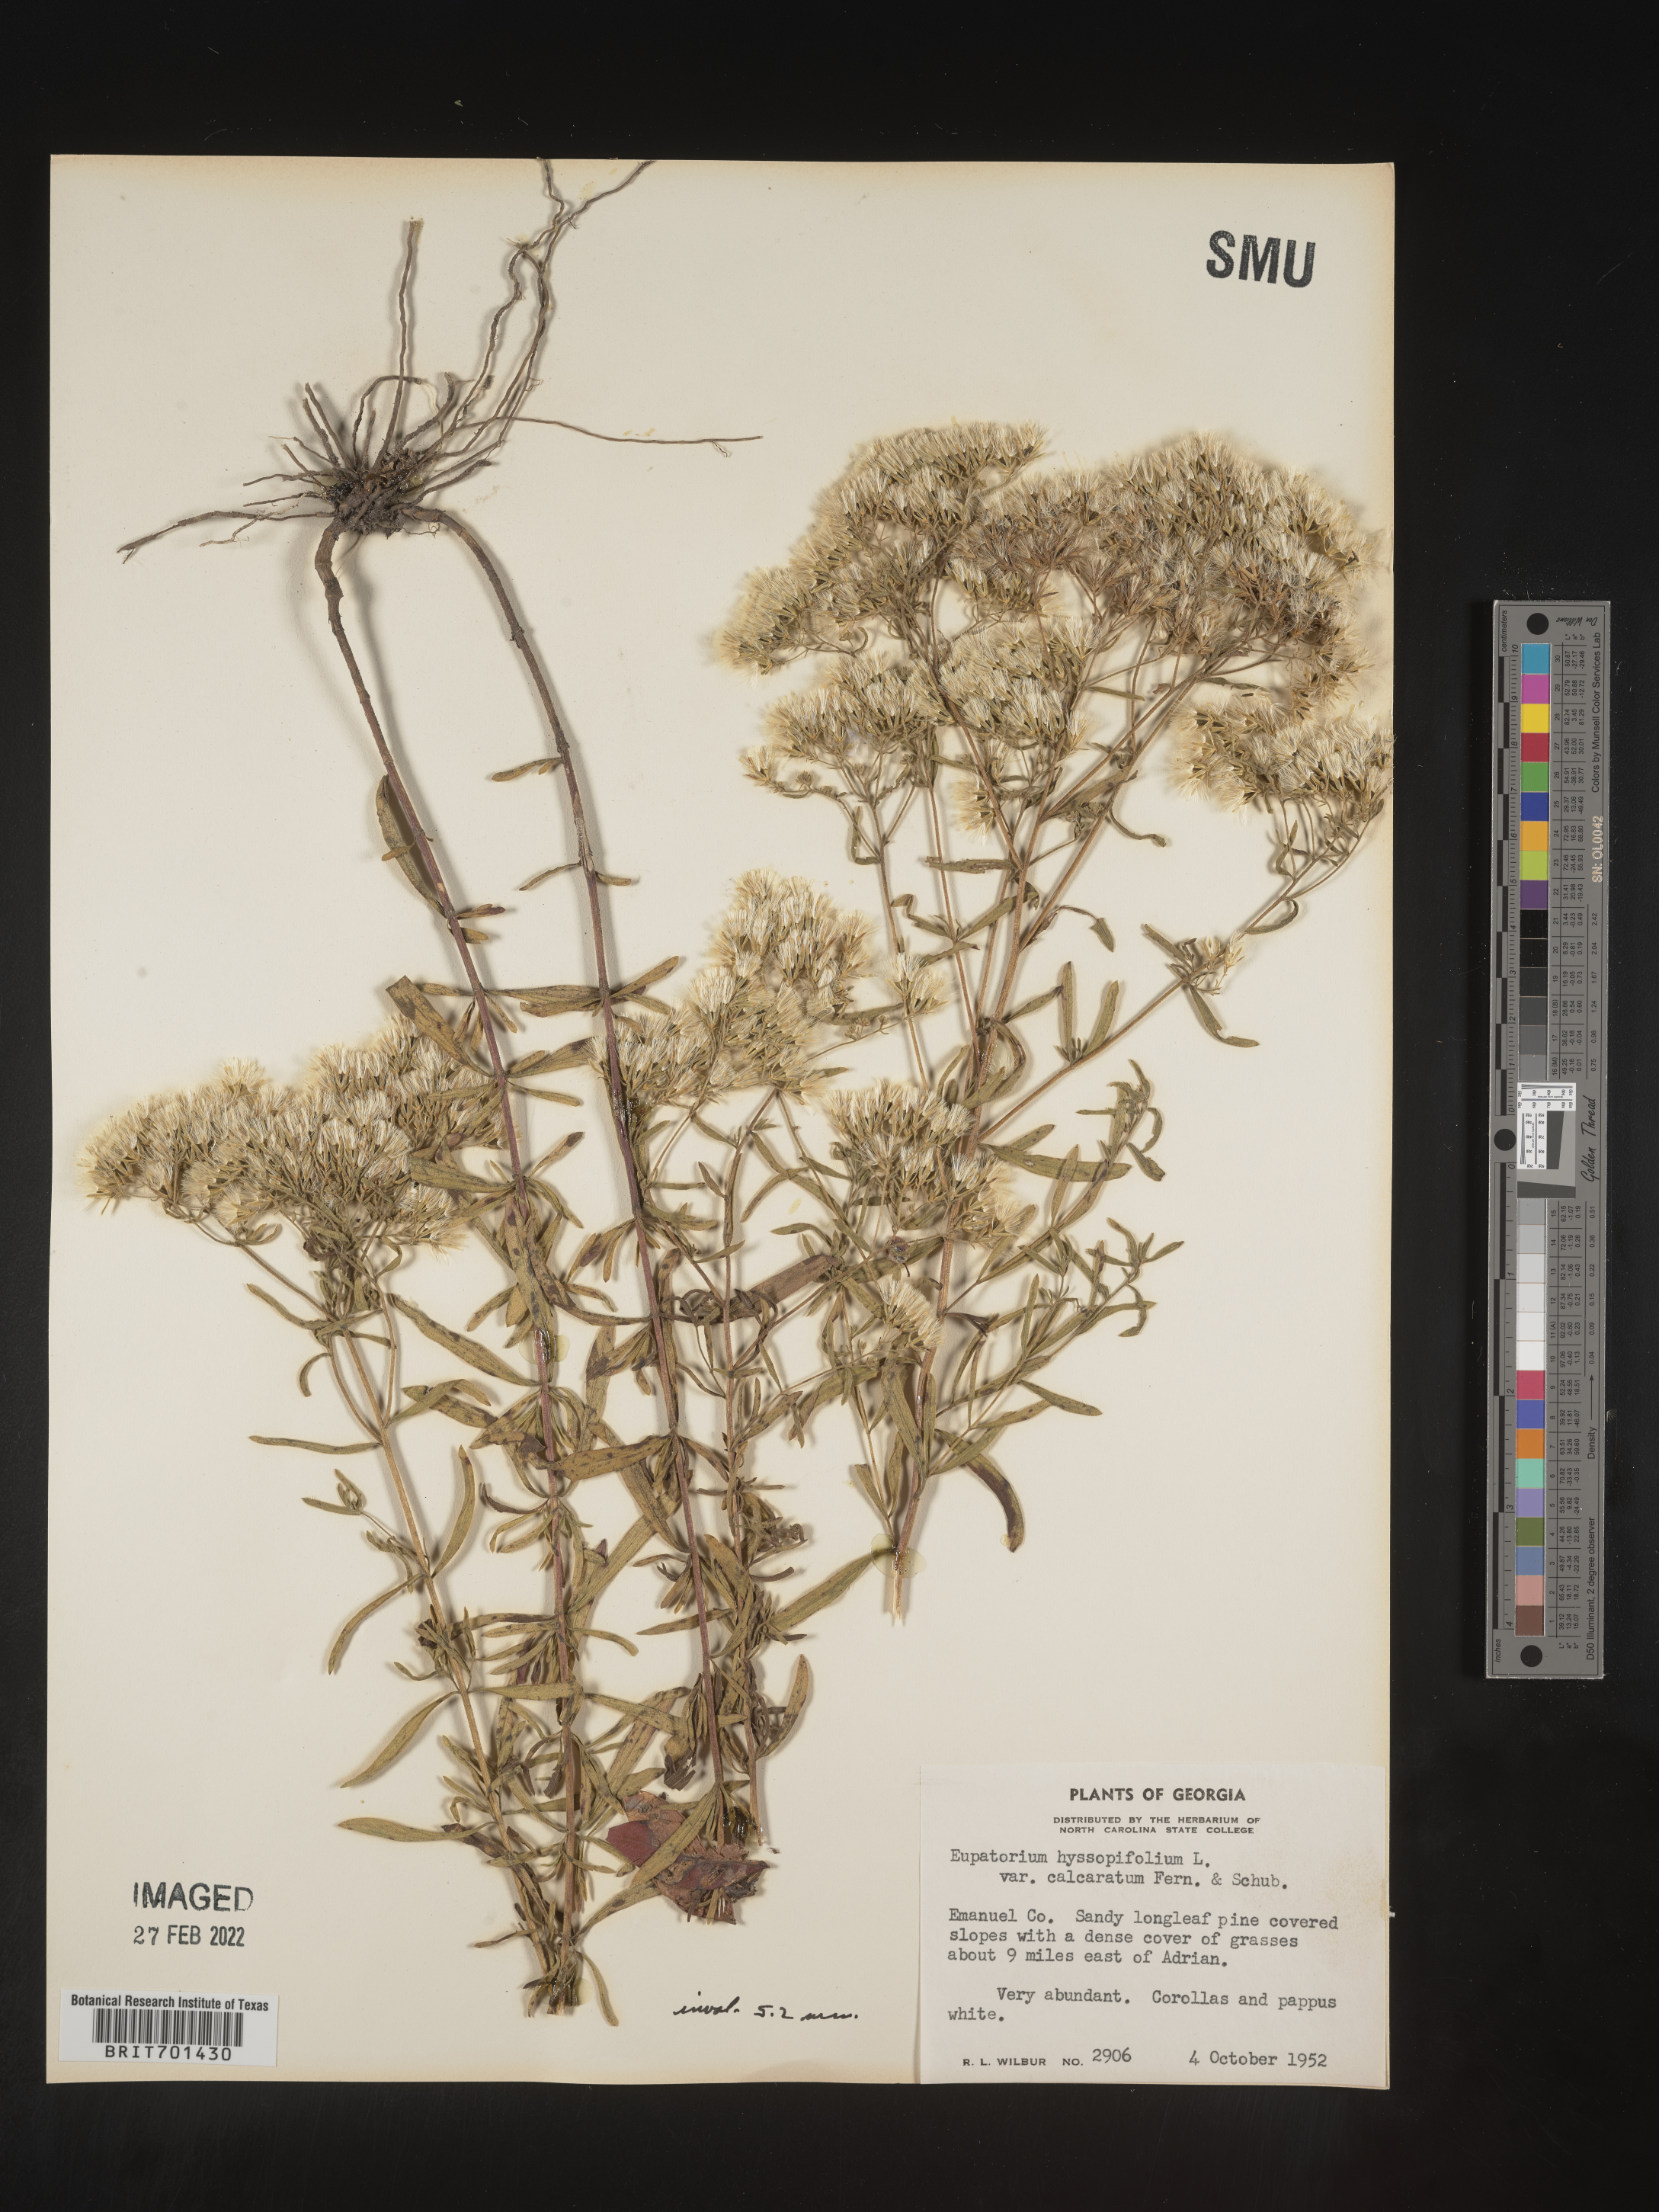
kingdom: Plantae
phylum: Tracheophyta
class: Magnoliopsida
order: Asterales
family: Asteraceae
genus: Eupatorium
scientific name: Eupatorium hyssopifolium
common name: Hyssop-leaf thoroughwort
